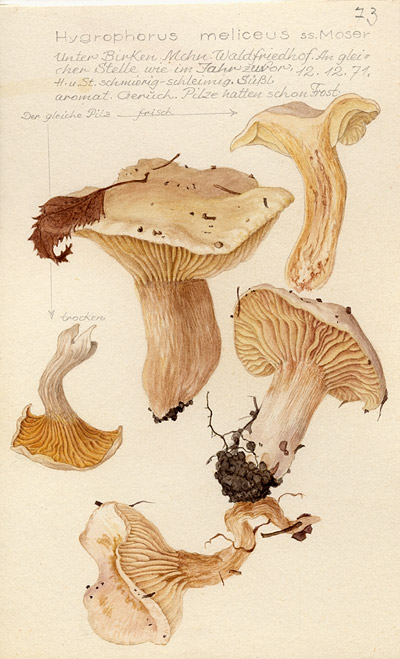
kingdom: Fungi
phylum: Basidiomycota
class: Agaricomycetes
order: Agaricales
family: Hygrophoraceae
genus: Hygrophorus
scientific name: Hygrophorus hedrychii
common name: Sweet woodwax
